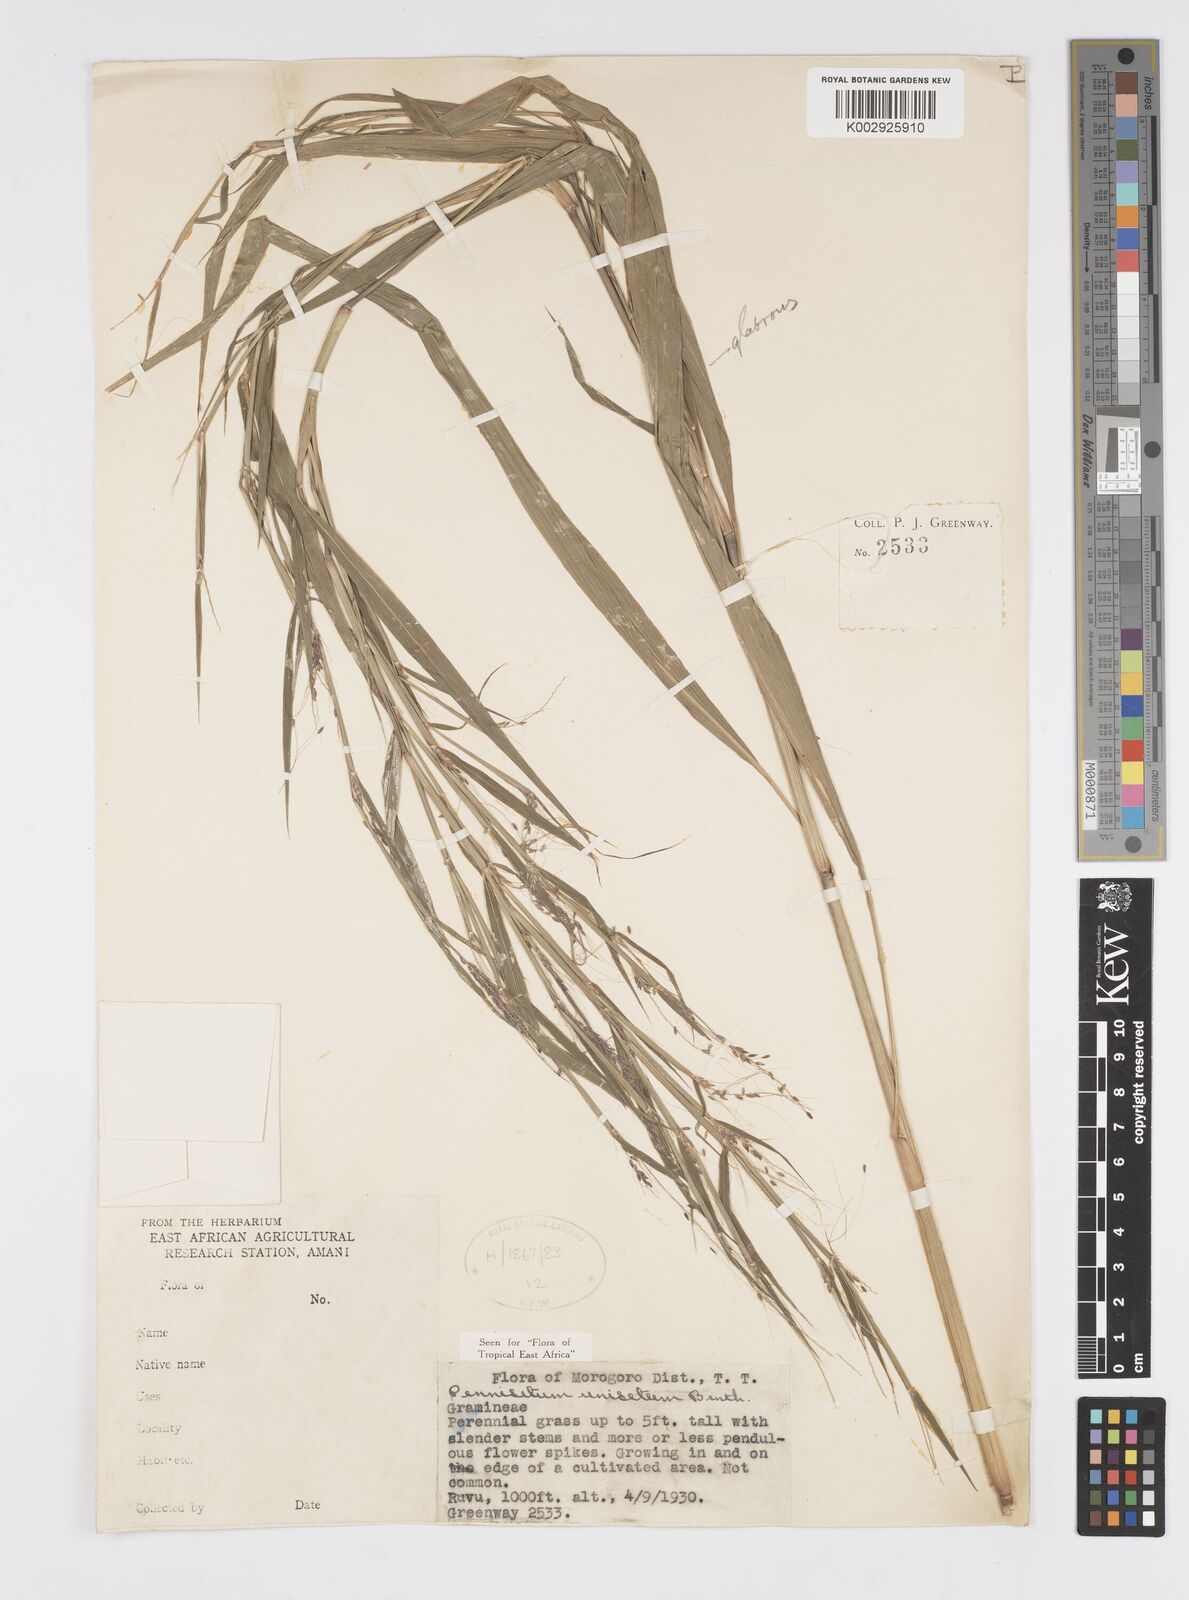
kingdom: Plantae
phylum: Tracheophyta
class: Liliopsida
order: Poales
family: Poaceae
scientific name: Poaceae
